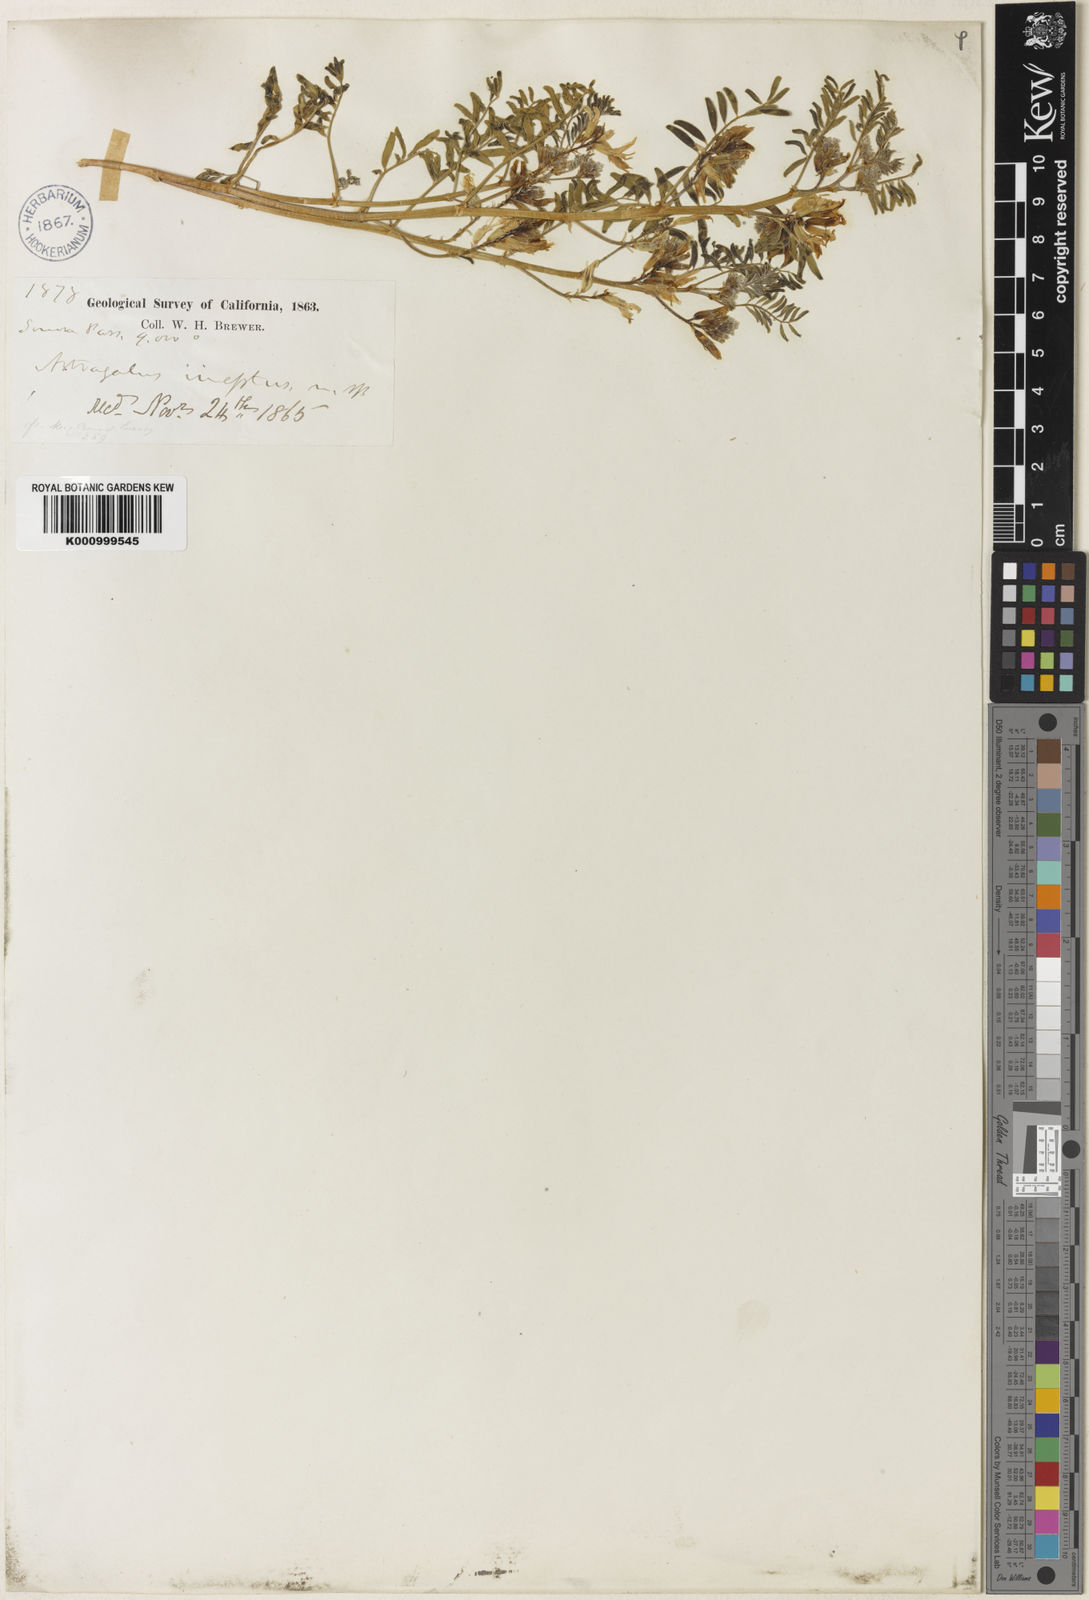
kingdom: Plantae
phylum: Tracheophyta
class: Magnoliopsida
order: Fabales
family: Fabaceae
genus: Astragalus
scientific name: Astragalus lentiginosus
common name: Freckled milkvetch
